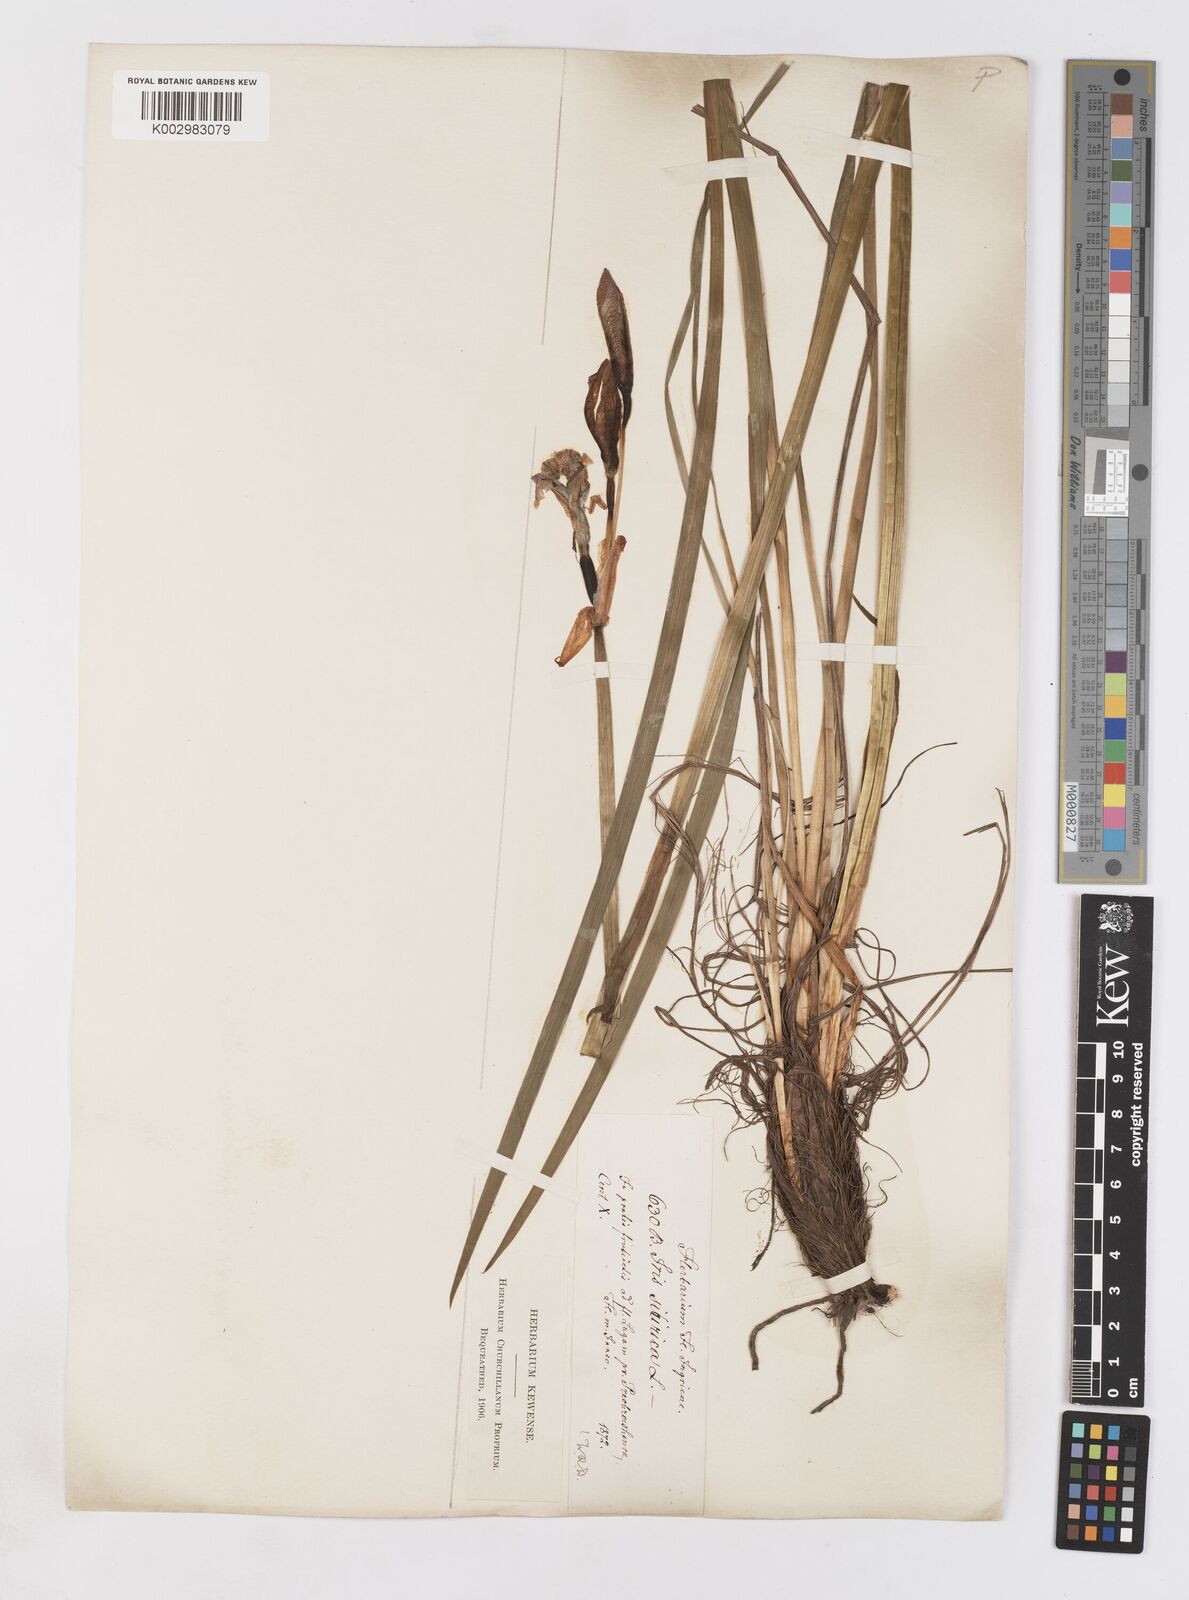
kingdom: Plantae
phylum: Tracheophyta
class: Liliopsida
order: Asparagales
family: Iridaceae
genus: Iris
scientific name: Iris sibirica
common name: Siberian iris
